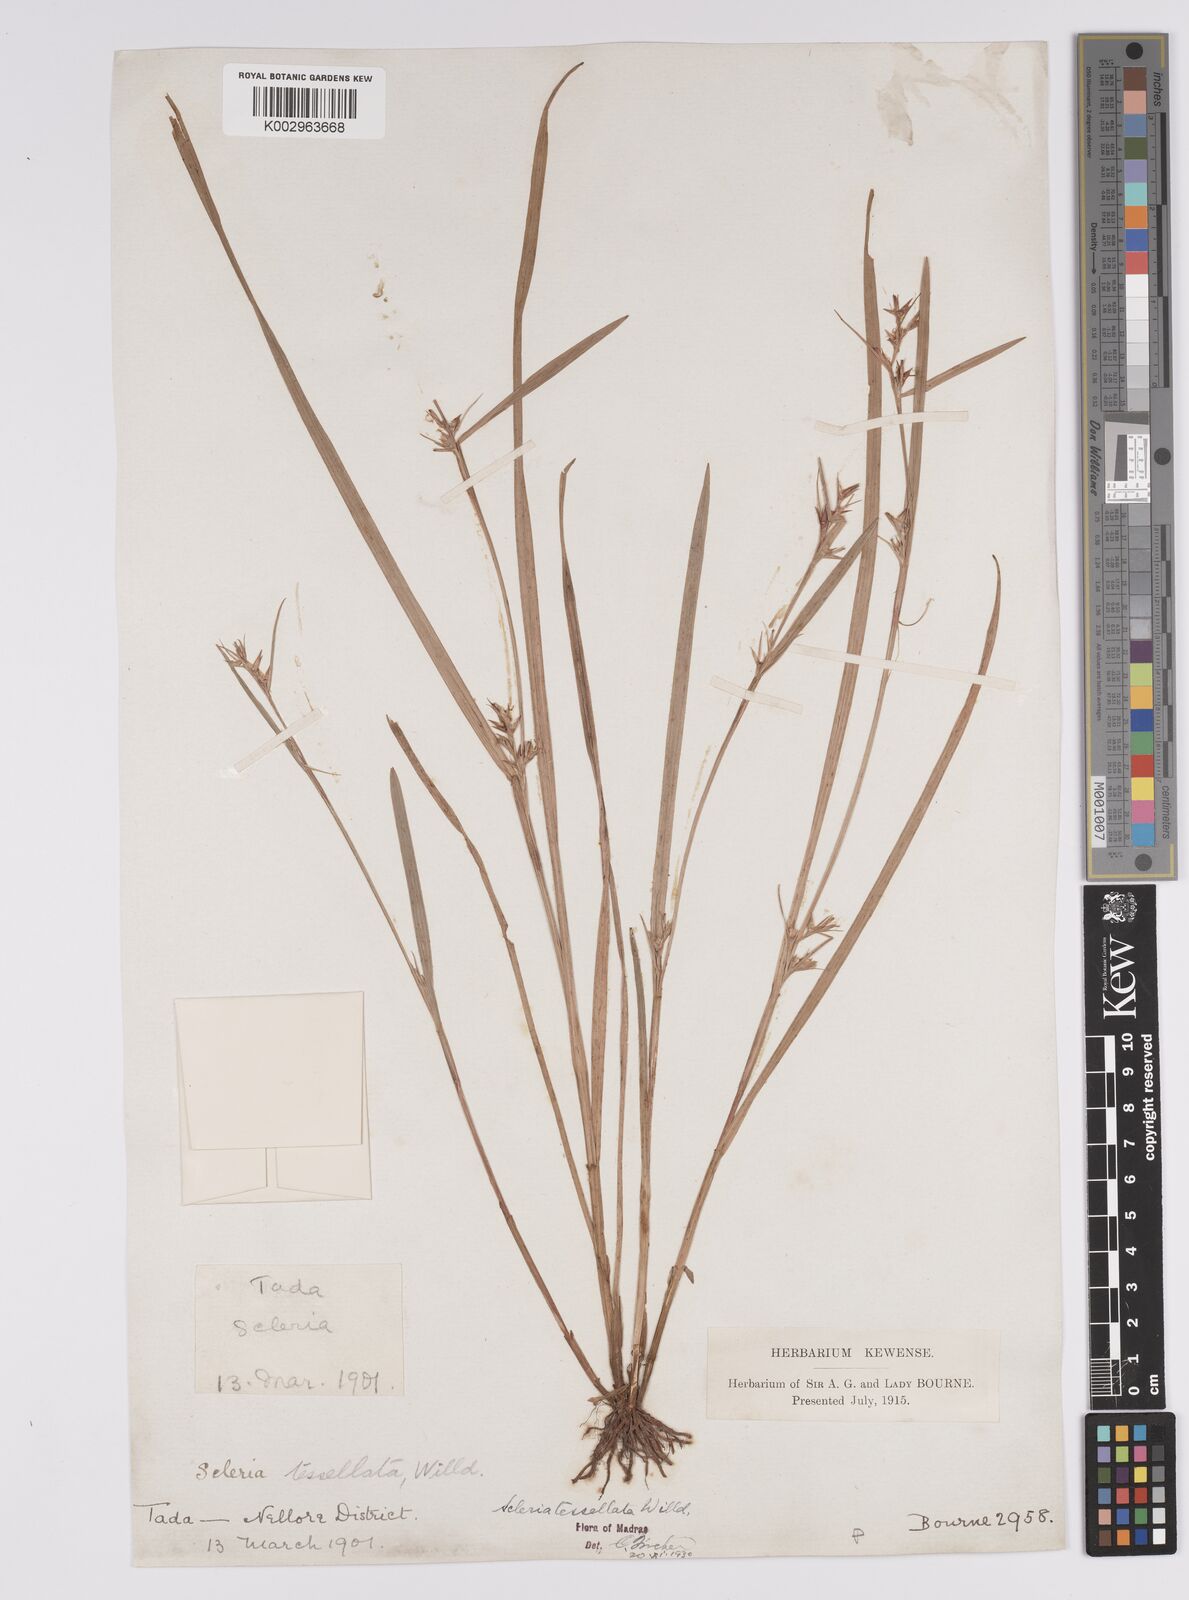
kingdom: Plantae
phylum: Tracheophyta
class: Liliopsida
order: Poales
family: Cyperaceae
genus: Scleria
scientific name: Scleria tessellata
